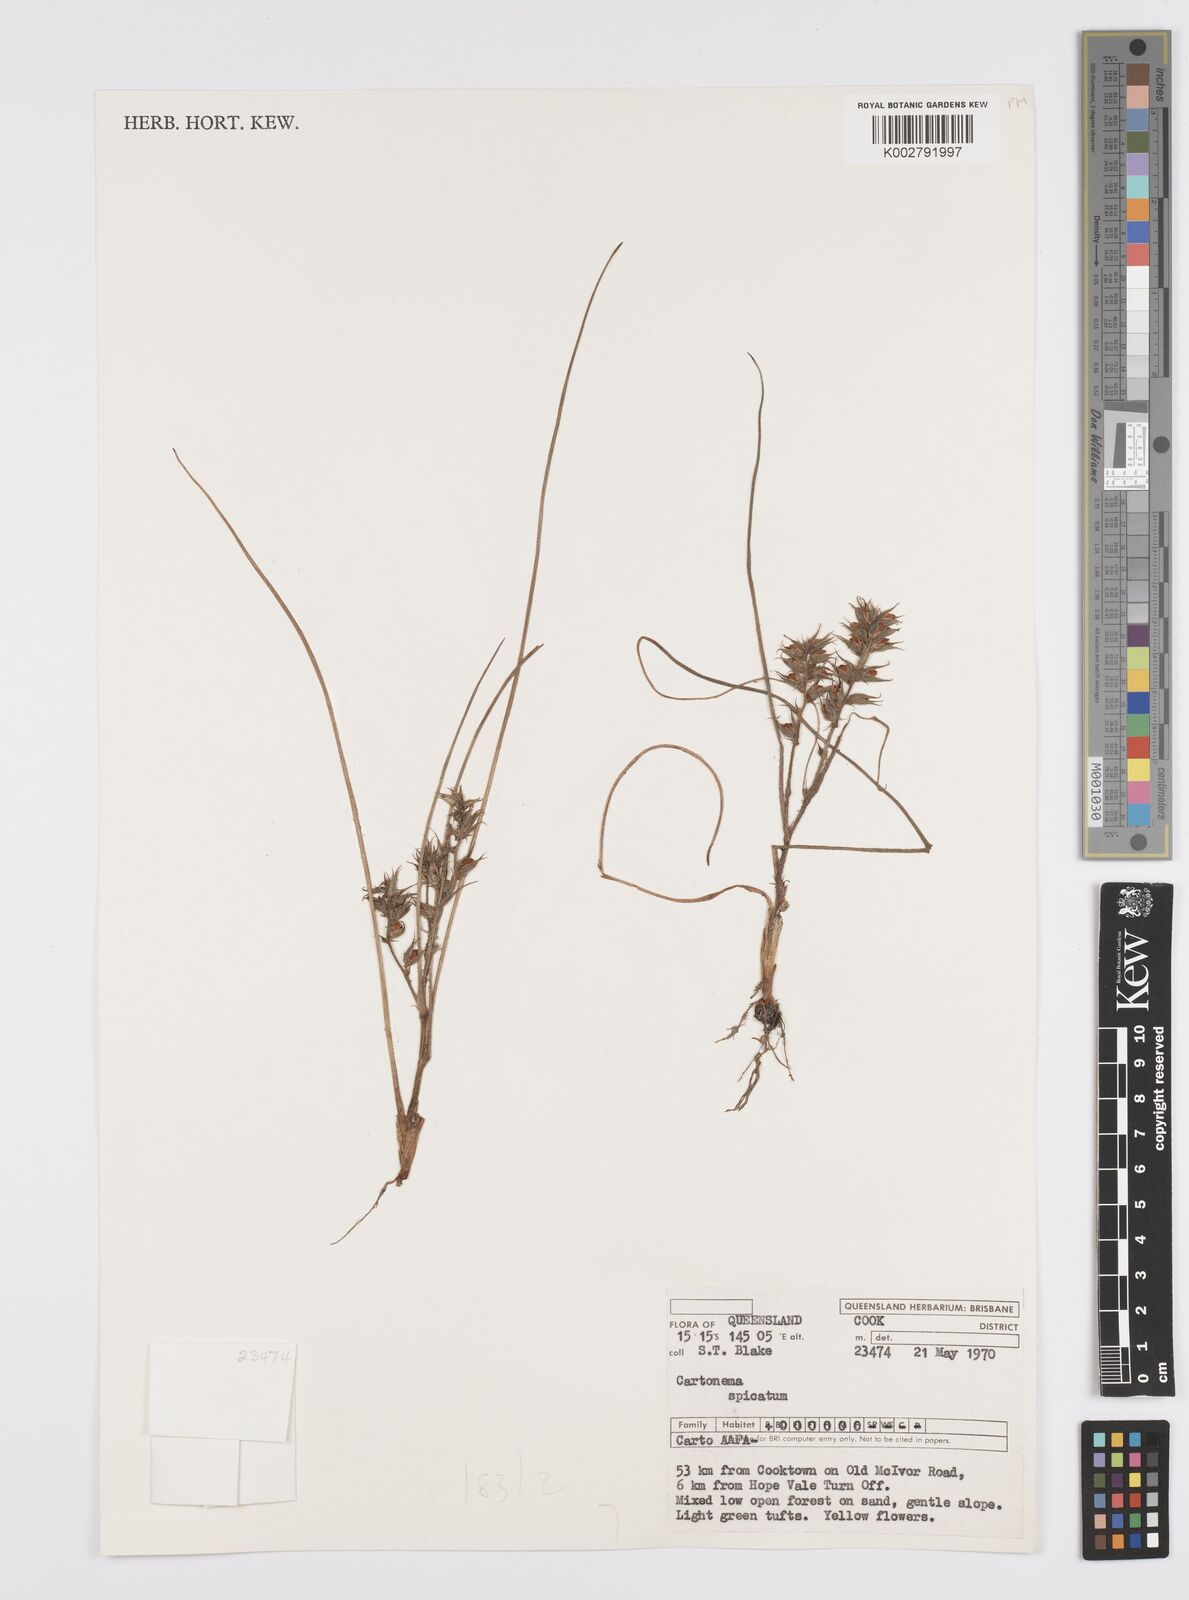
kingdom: Plantae
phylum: Tracheophyta
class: Liliopsida
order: Commelinales
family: Commelinaceae
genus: Cartonema
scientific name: Cartonema spicatum
